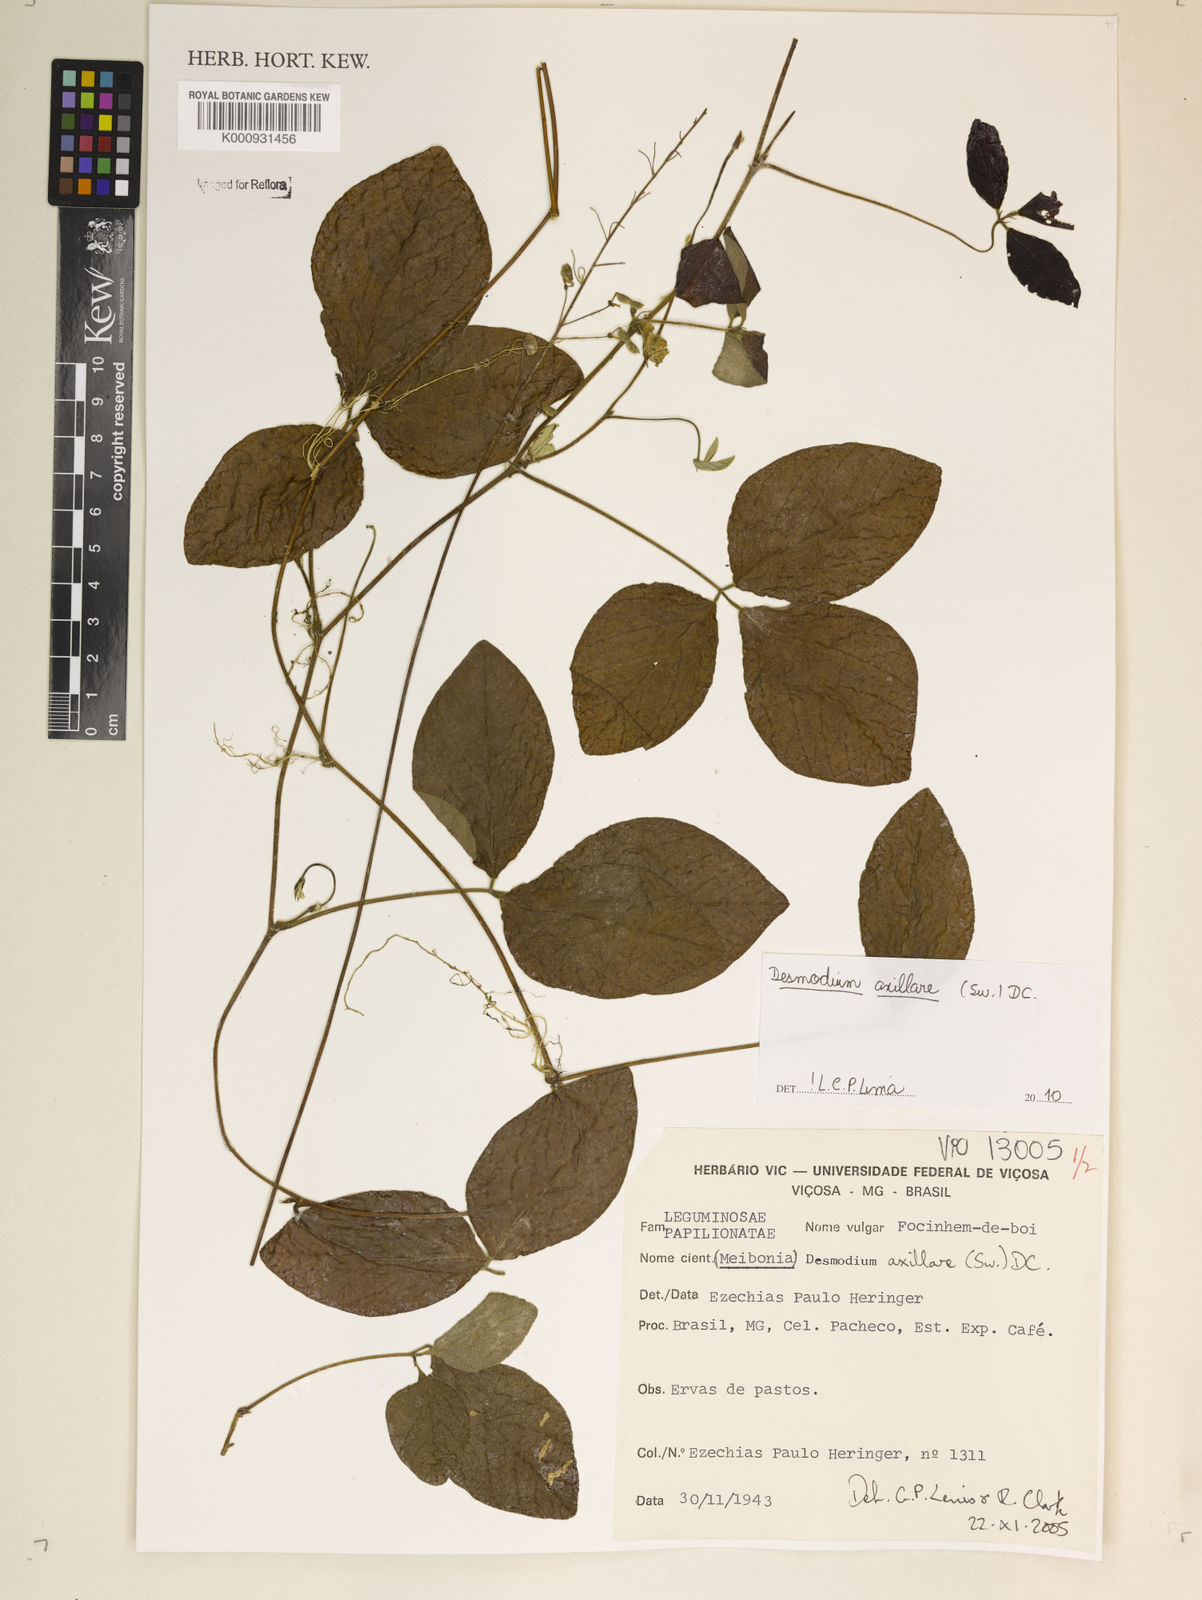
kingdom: Plantae
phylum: Tracheophyta
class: Magnoliopsida
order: Fabales
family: Fabaceae
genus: Desmodium
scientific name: Desmodium axillare
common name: Wire with
